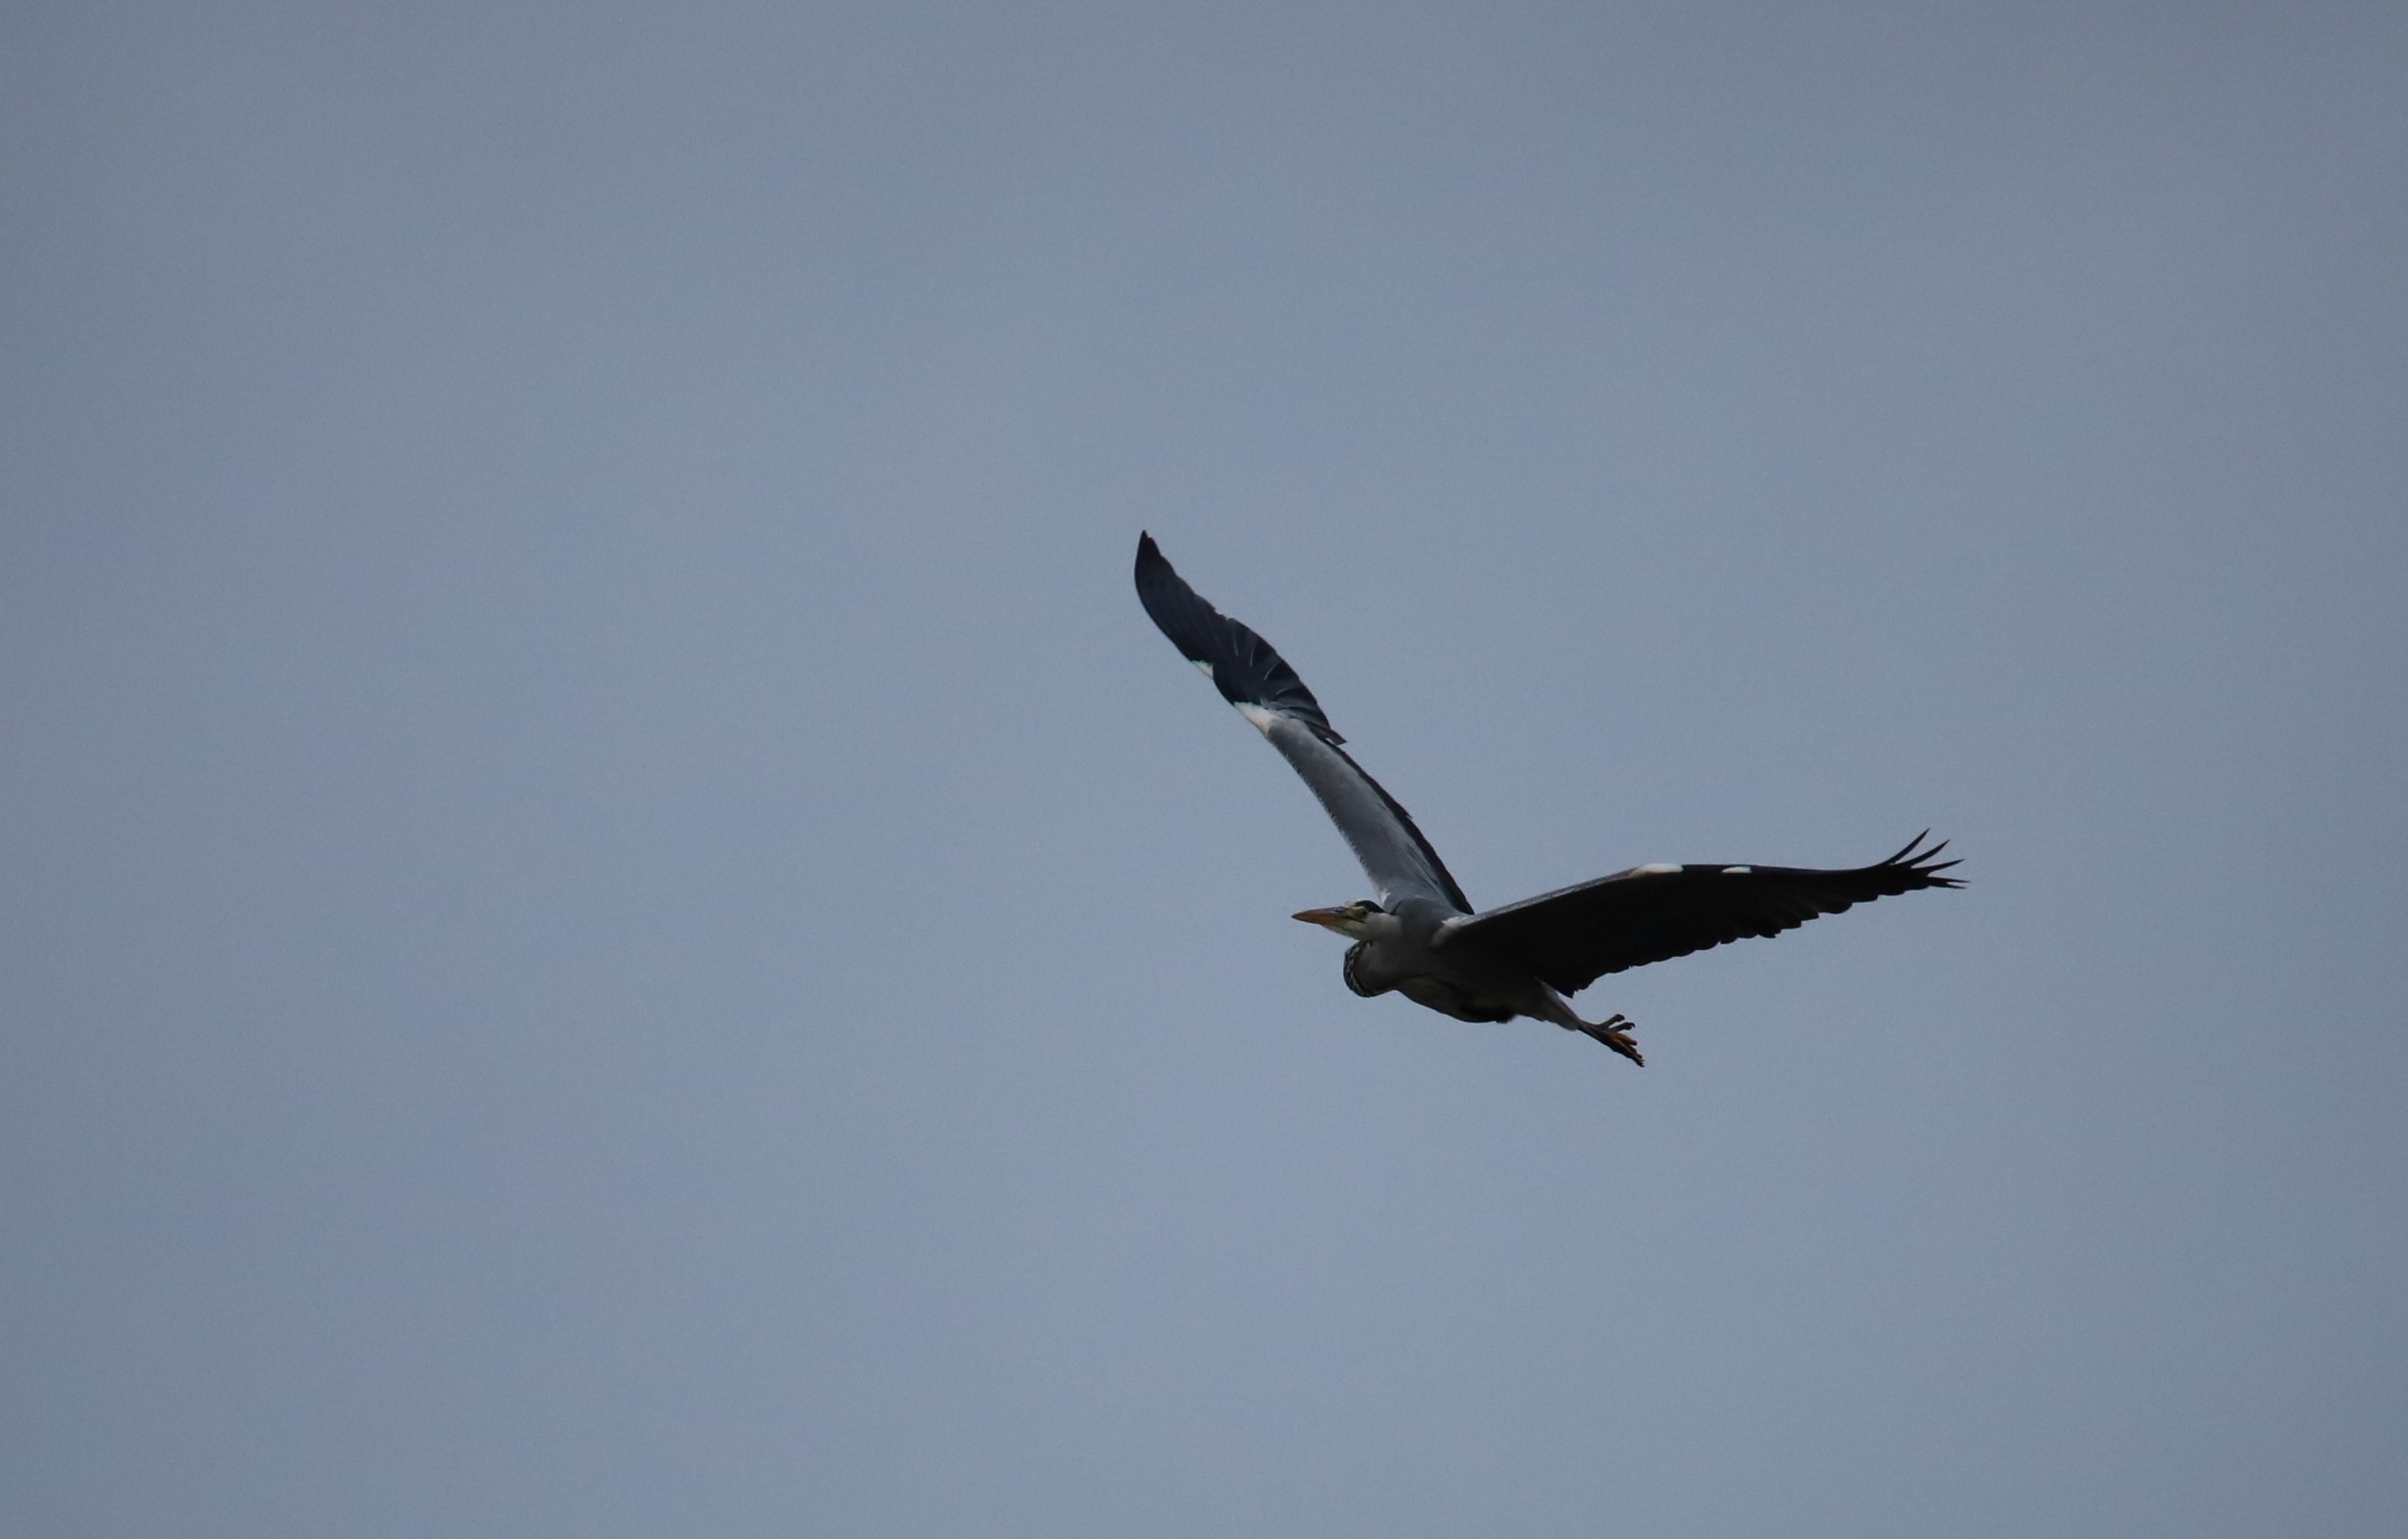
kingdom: Animalia
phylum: Chordata
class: Aves
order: Pelecaniformes
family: Ardeidae
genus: Ardea
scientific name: Ardea cinerea
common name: Fiskehejre
